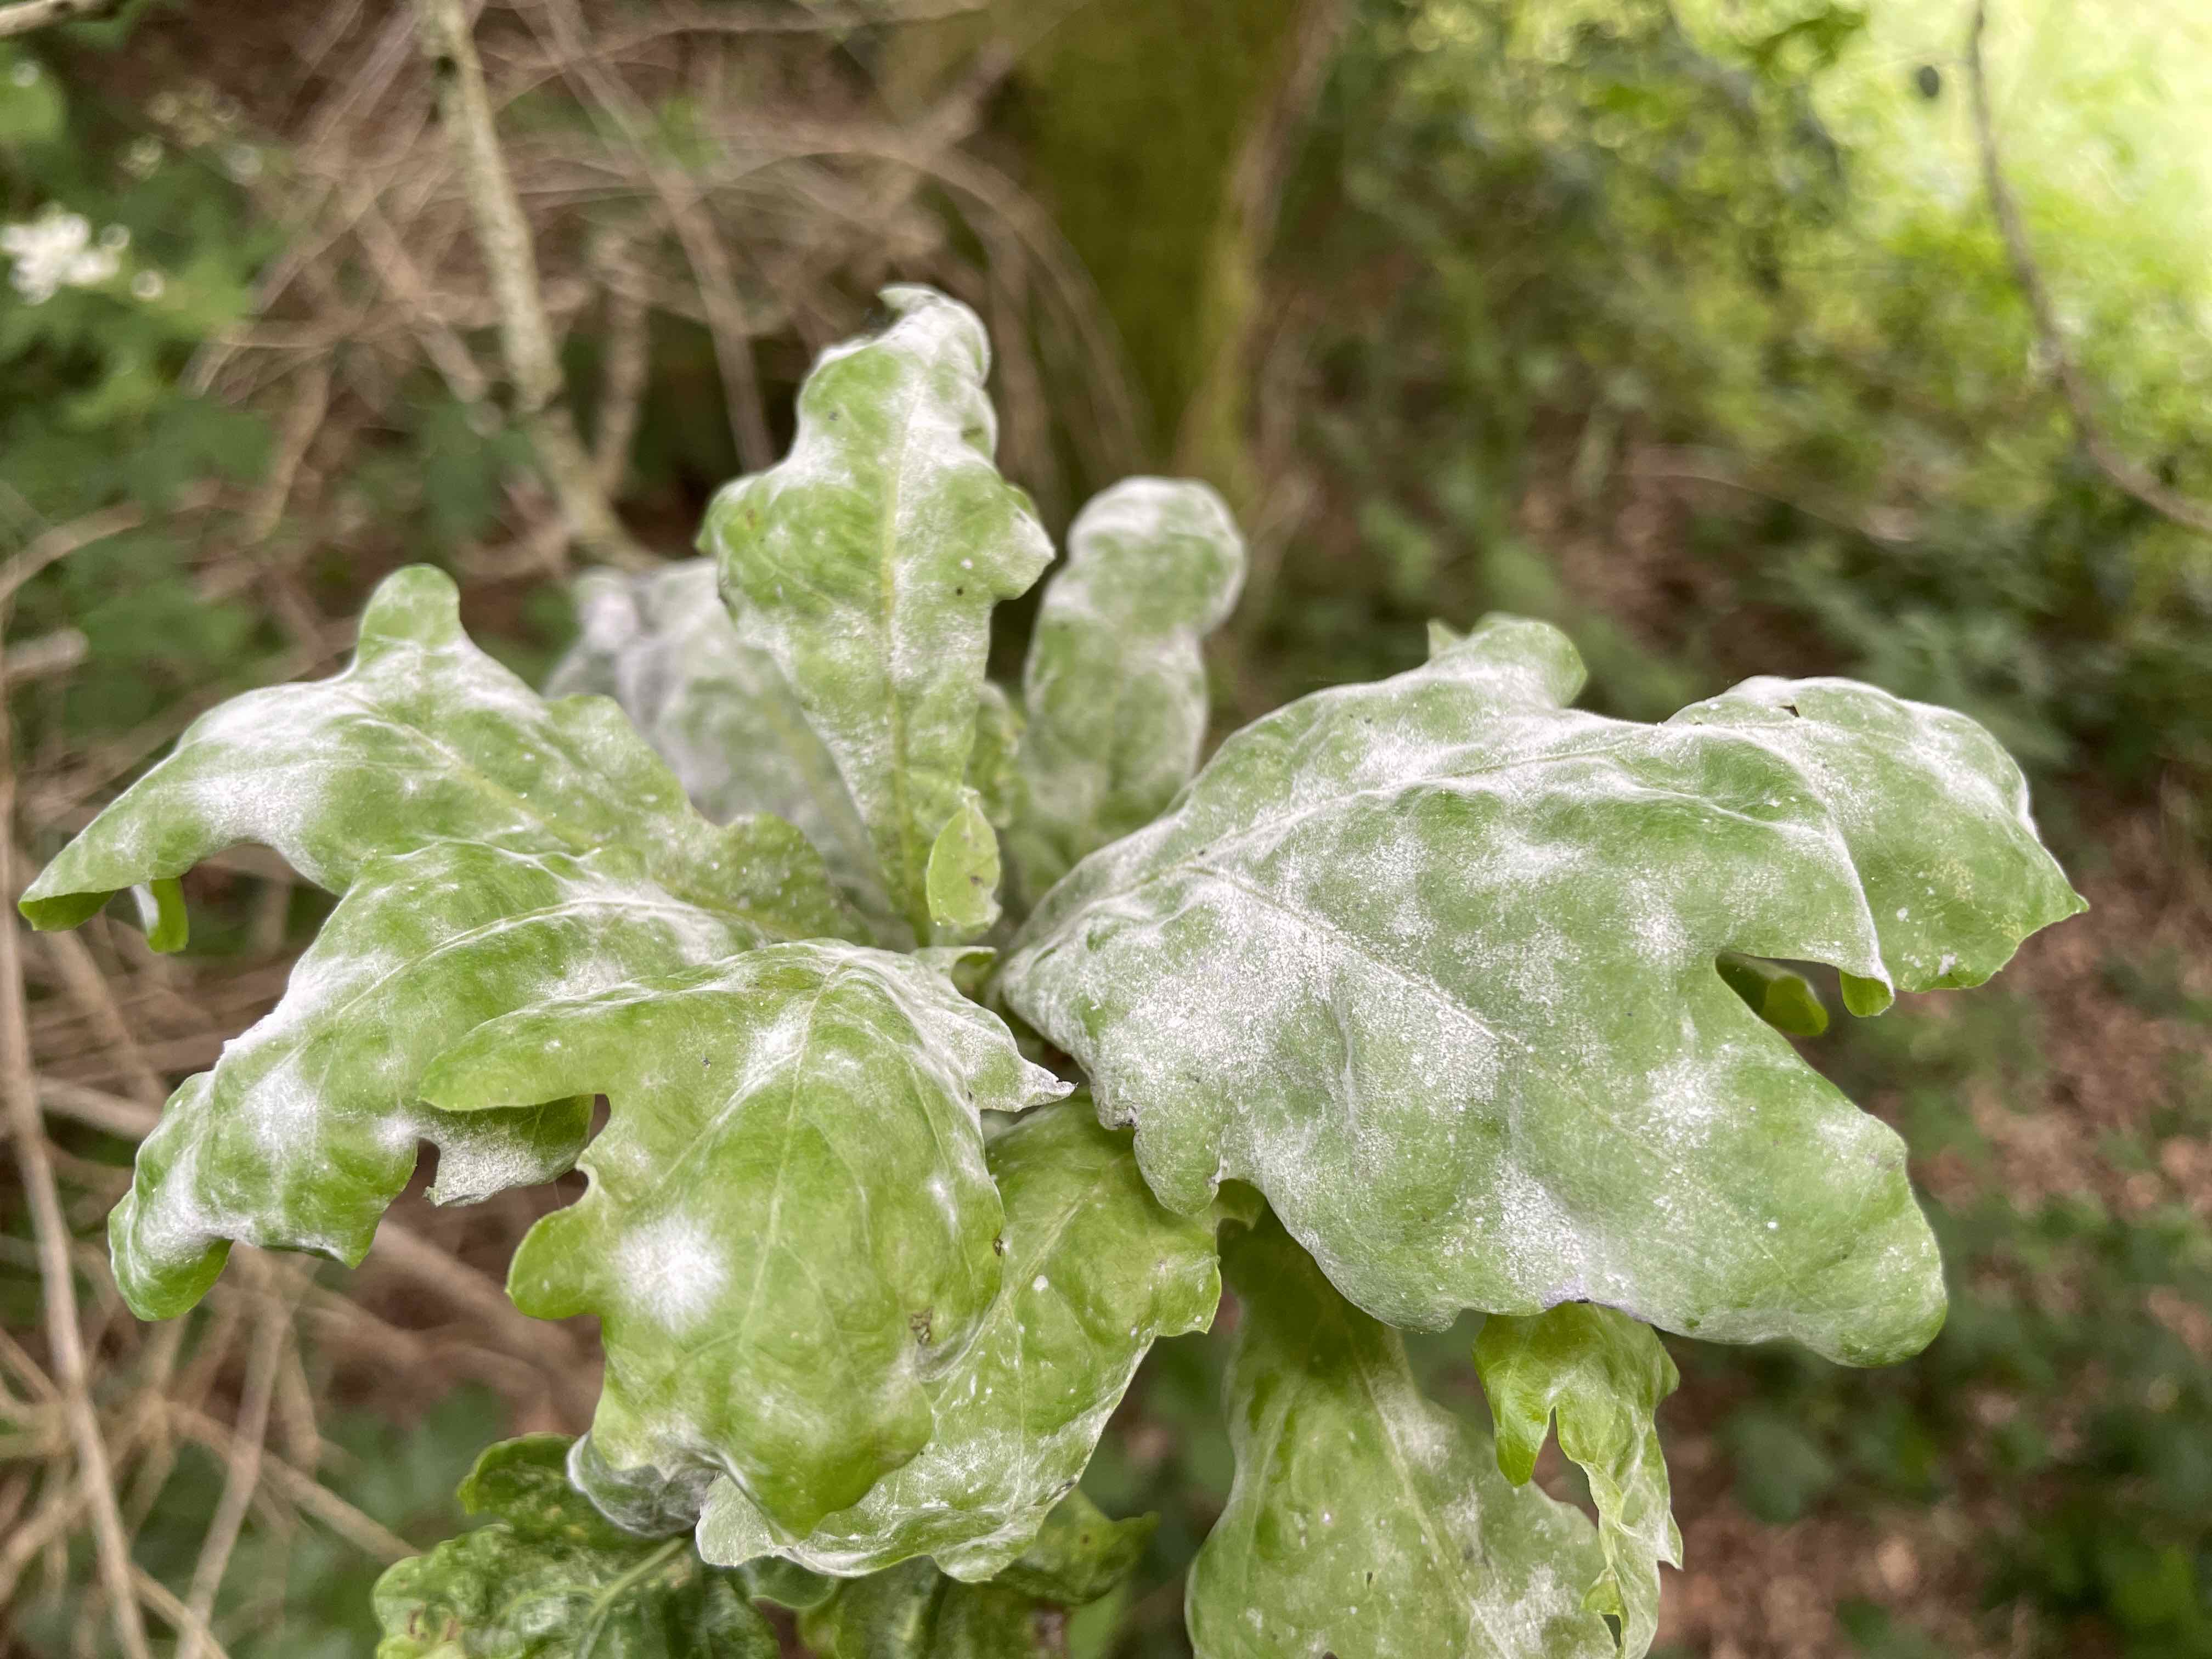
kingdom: Fungi
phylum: Ascomycota
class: Leotiomycetes
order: Helotiales
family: Erysiphaceae
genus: Erysiphe
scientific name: Erysiphe alphitoides
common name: ege-meldug
